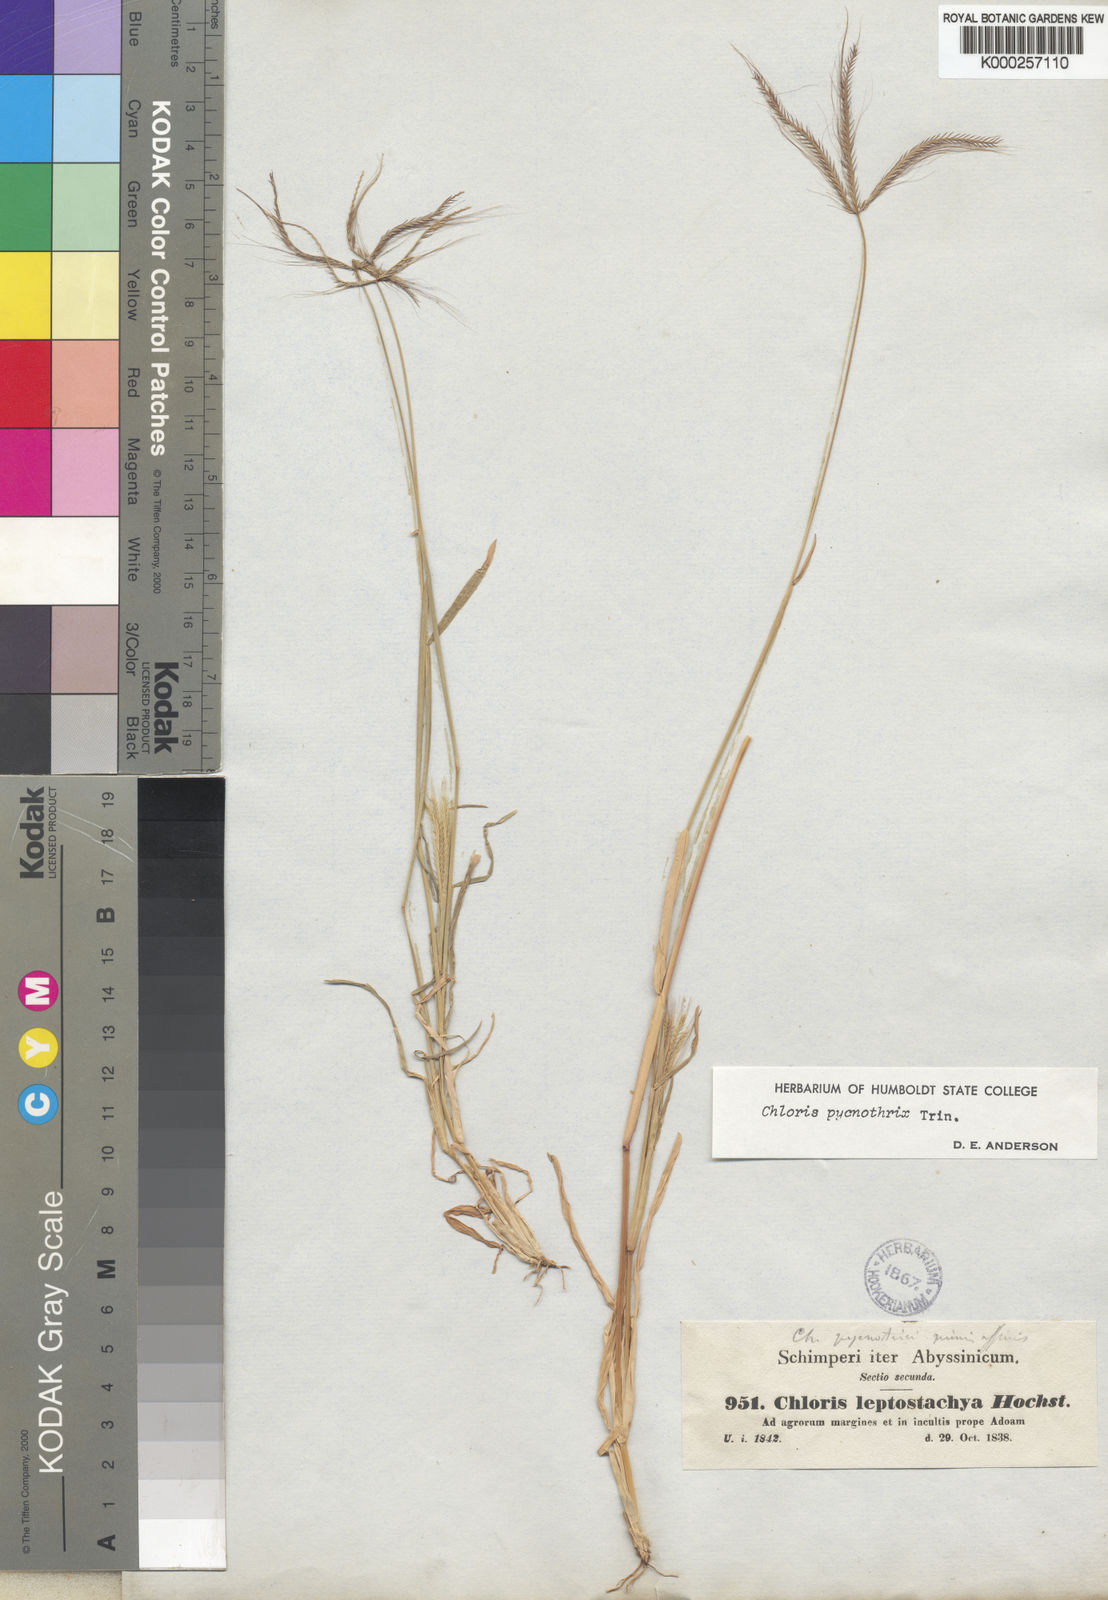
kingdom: Plantae
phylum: Tracheophyta
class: Liliopsida
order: Poales
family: Poaceae
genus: Chloris
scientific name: Chloris pycnothrix
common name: Spiderweb chloris
